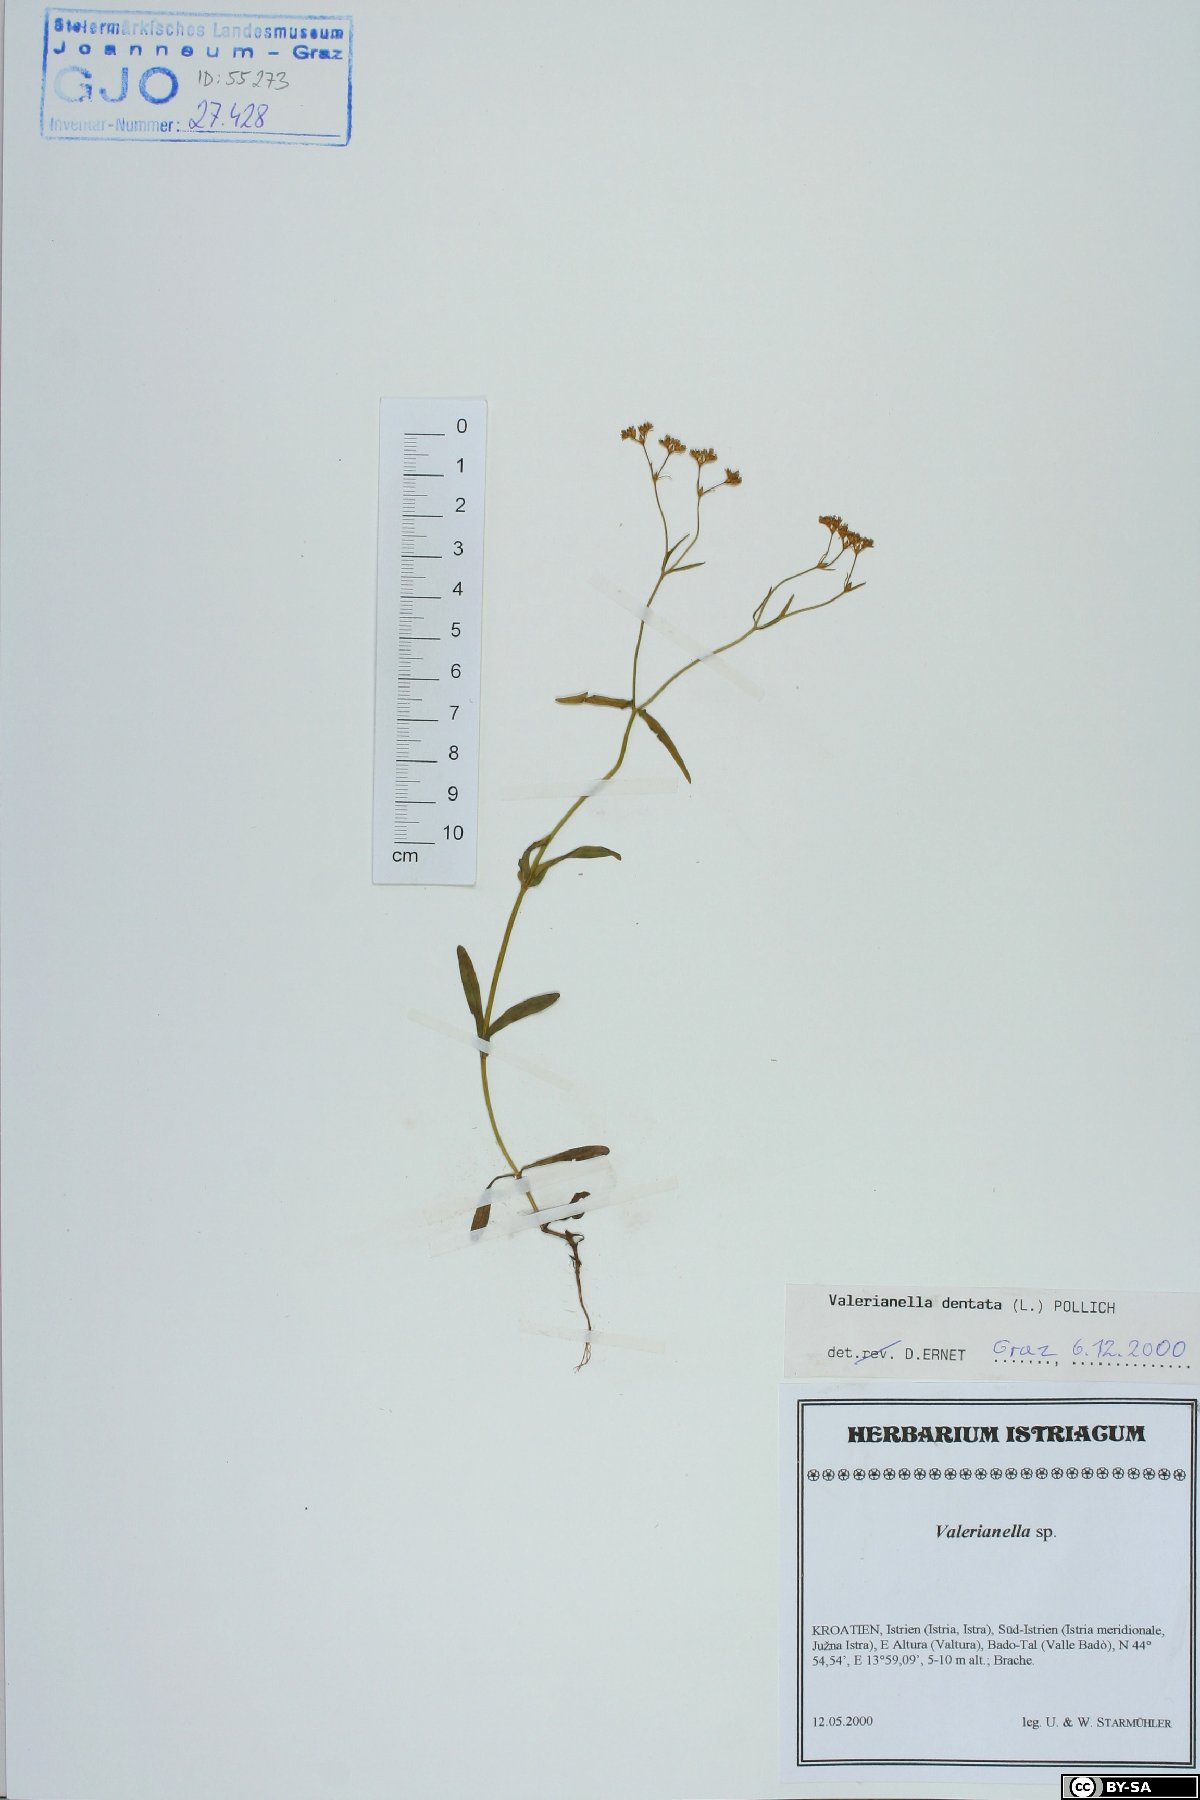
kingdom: Plantae
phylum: Tracheophyta
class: Magnoliopsida
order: Dipsacales
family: Caprifoliaceae
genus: Valerianella
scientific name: Valerianella dentata
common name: Narrow-fruited cornsalad
